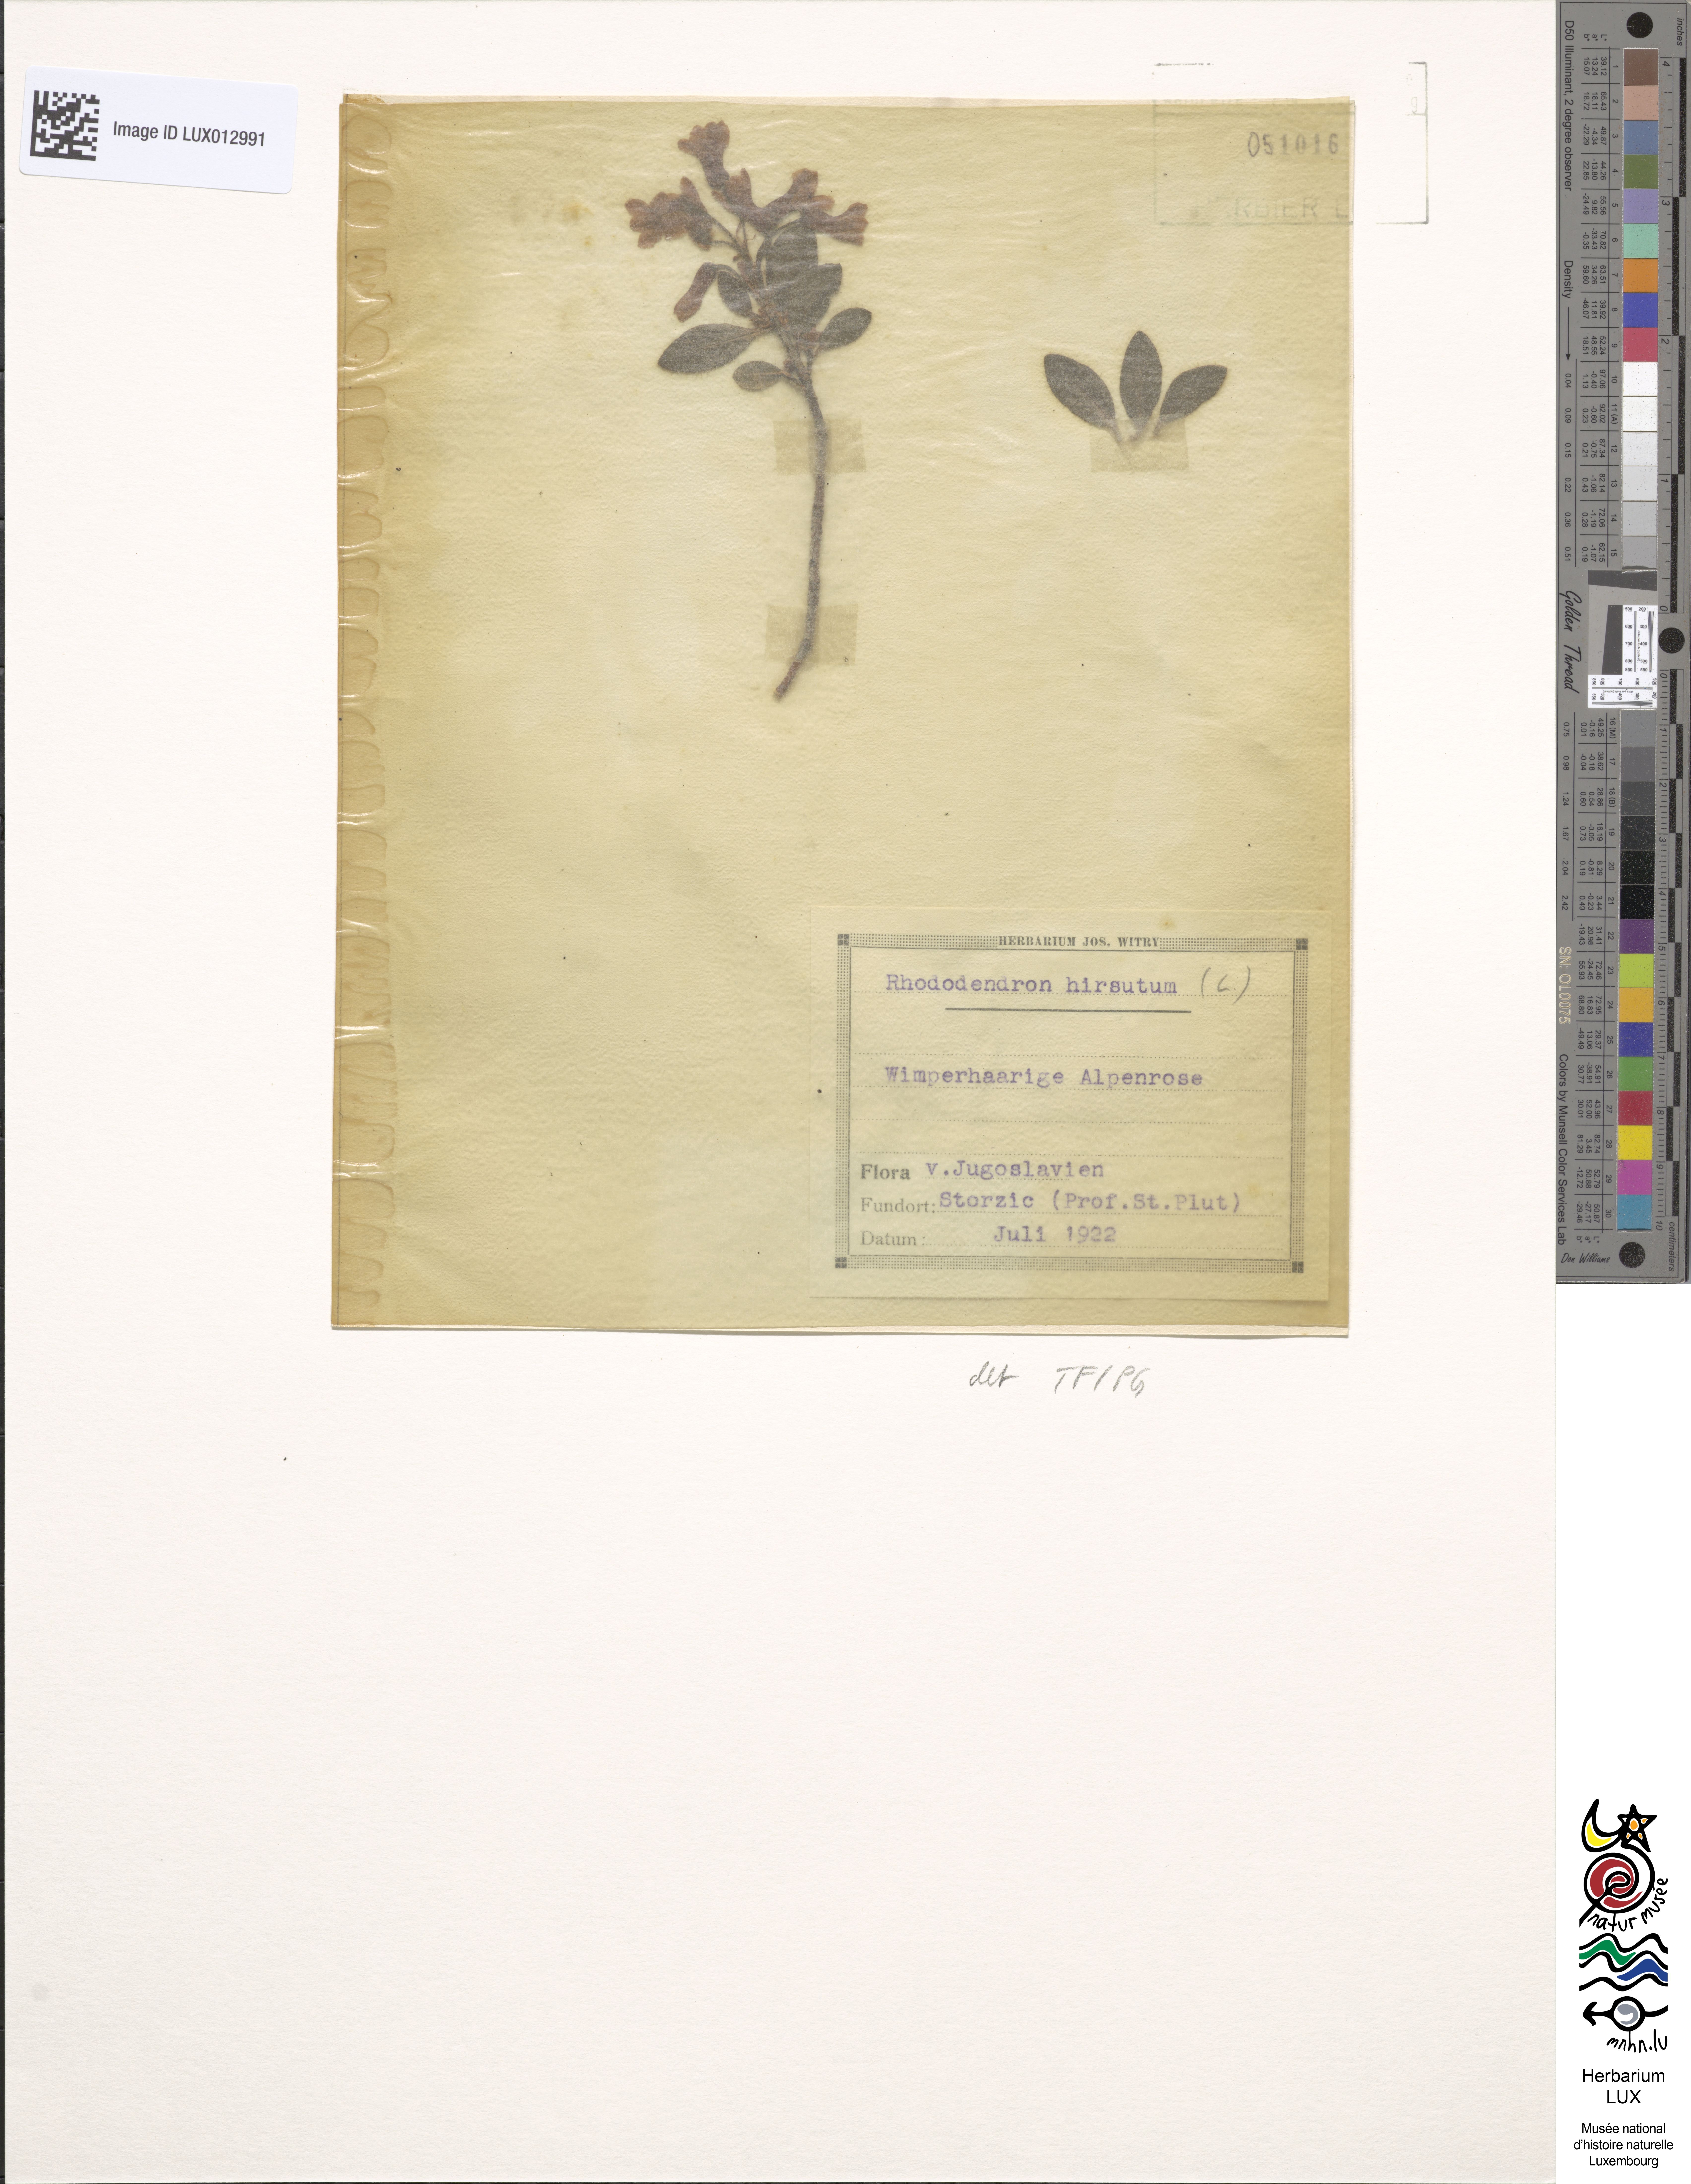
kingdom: Plantae
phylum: Tracheophyta
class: Magnoliopsida
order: Ericales
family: Ericaceae
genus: Rhododendron
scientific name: Rhododendron hirsutum
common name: Hairy alpenrose
